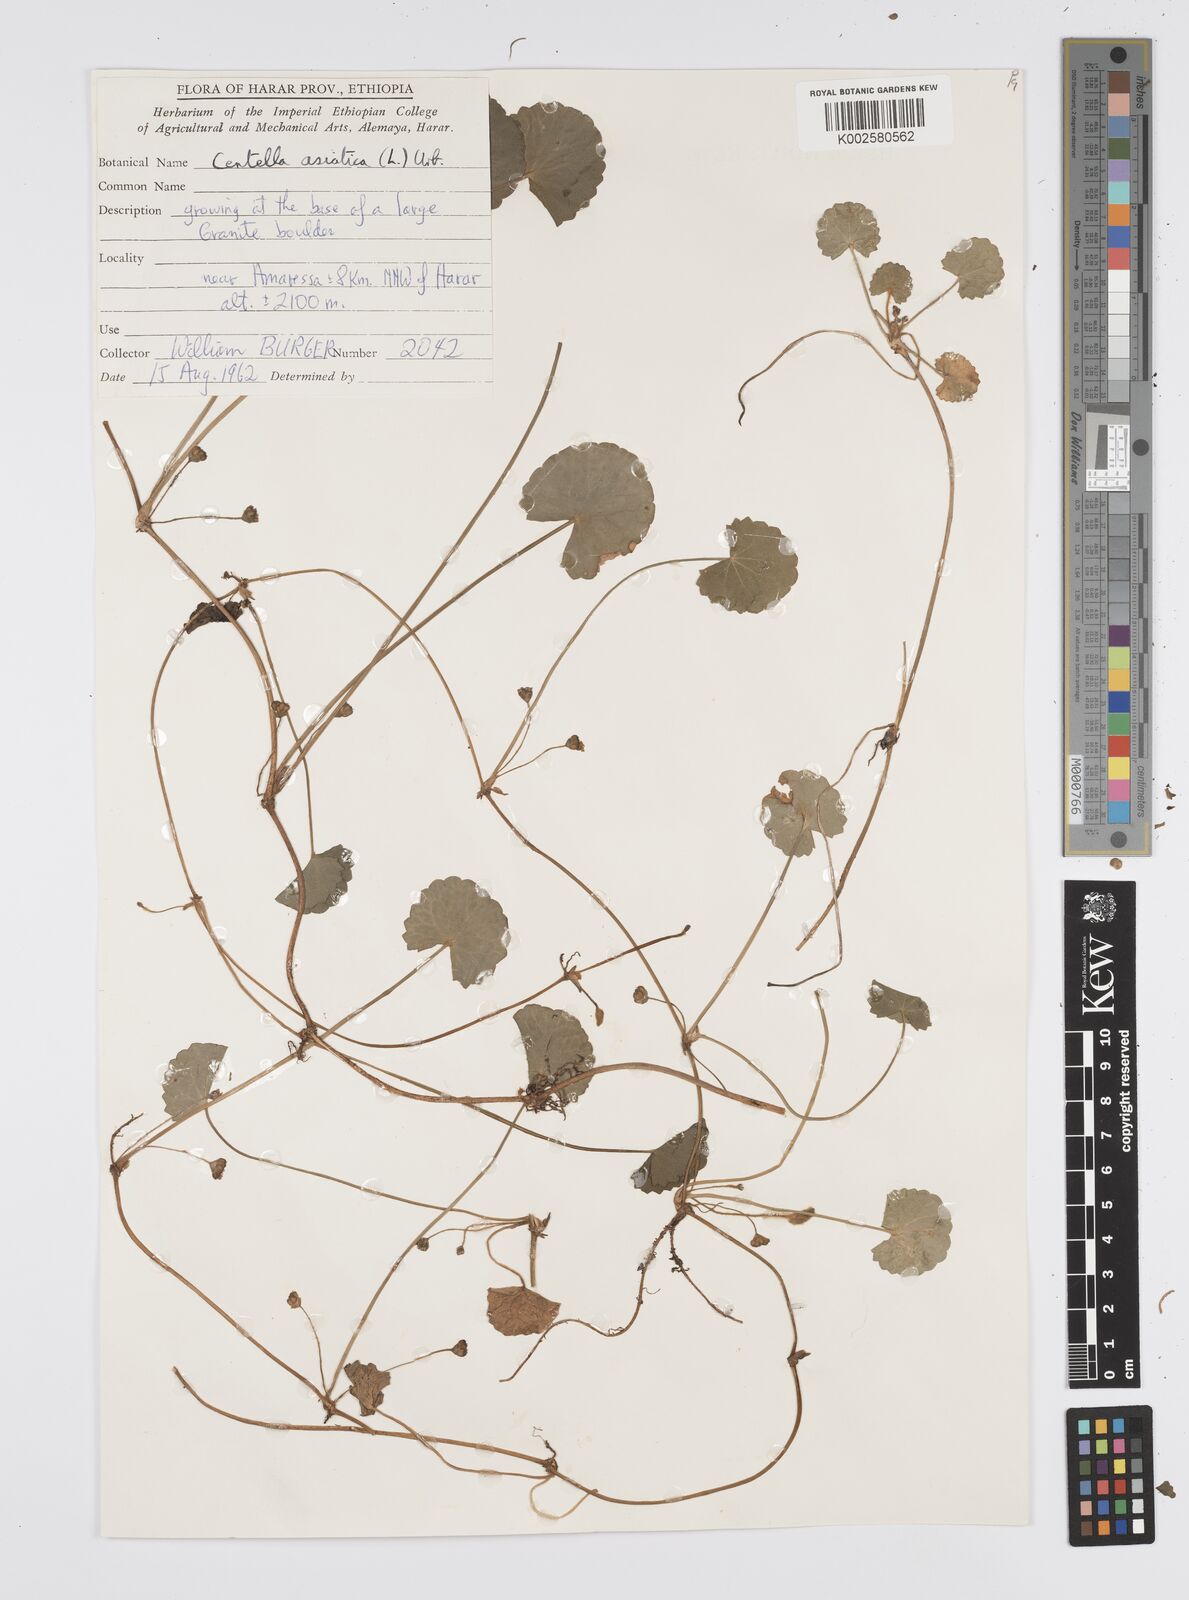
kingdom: Plantae
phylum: Tracheophyta
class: Magnoliopsida
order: Apiales
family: Apiaceae
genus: Centella
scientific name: Centella asiatica
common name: Spadeleaf
